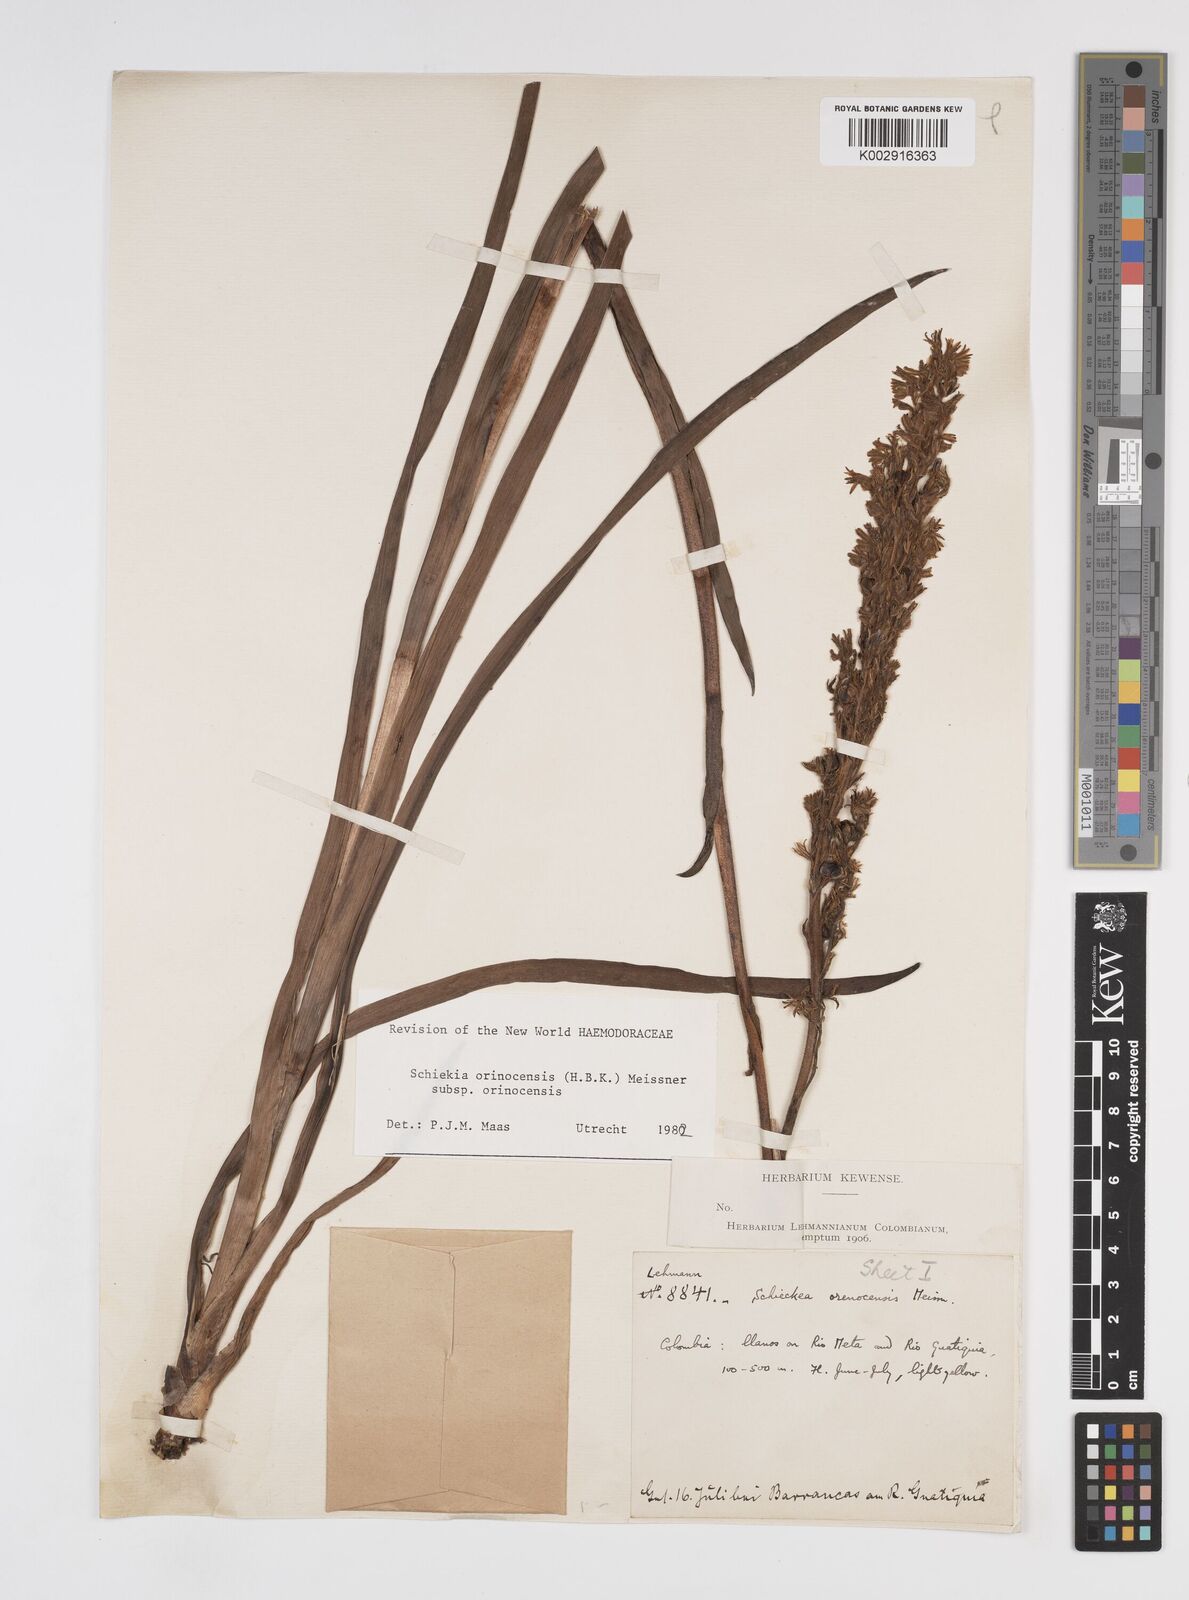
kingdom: Plantae
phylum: Tracheophyta
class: Liliopsida
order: Commelinales
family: Haemodoraceae
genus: Schiekia
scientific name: Schiekia orinocensis
